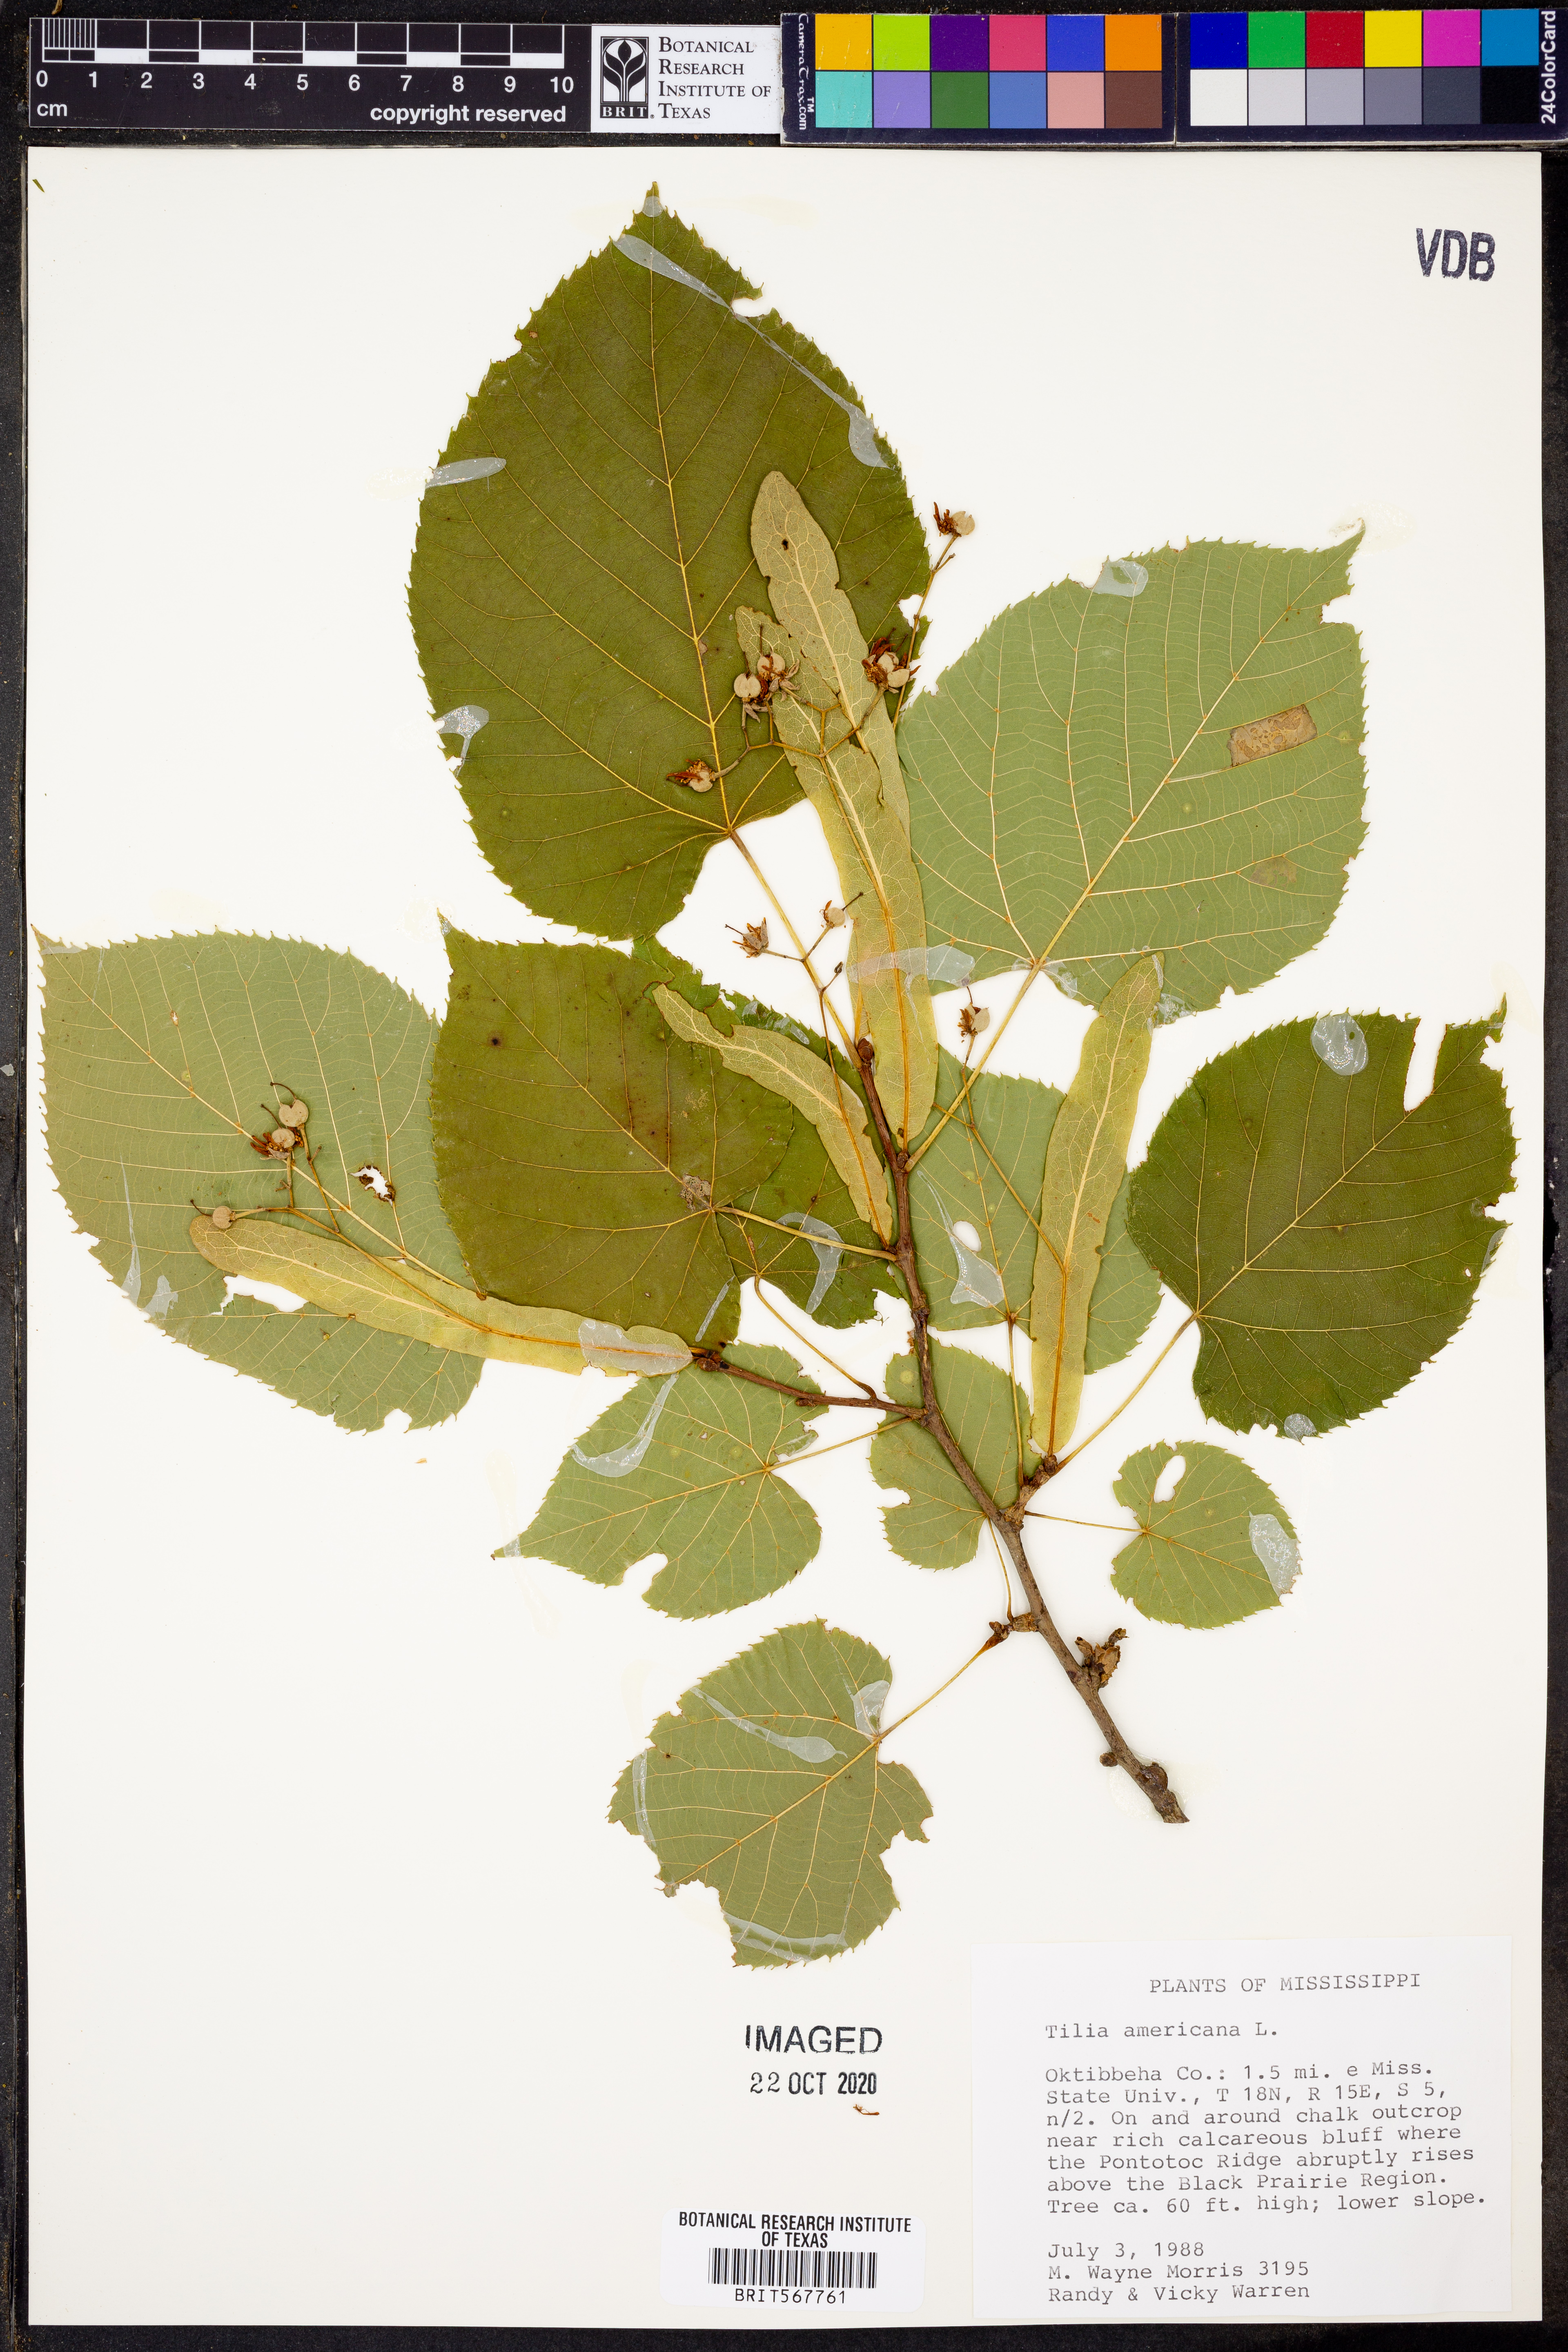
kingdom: Plantae
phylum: Tracheophyta
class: Magnoliopsida
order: Malvales
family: Malvaceae
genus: Tilia
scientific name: Tilia americana
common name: Basswood
